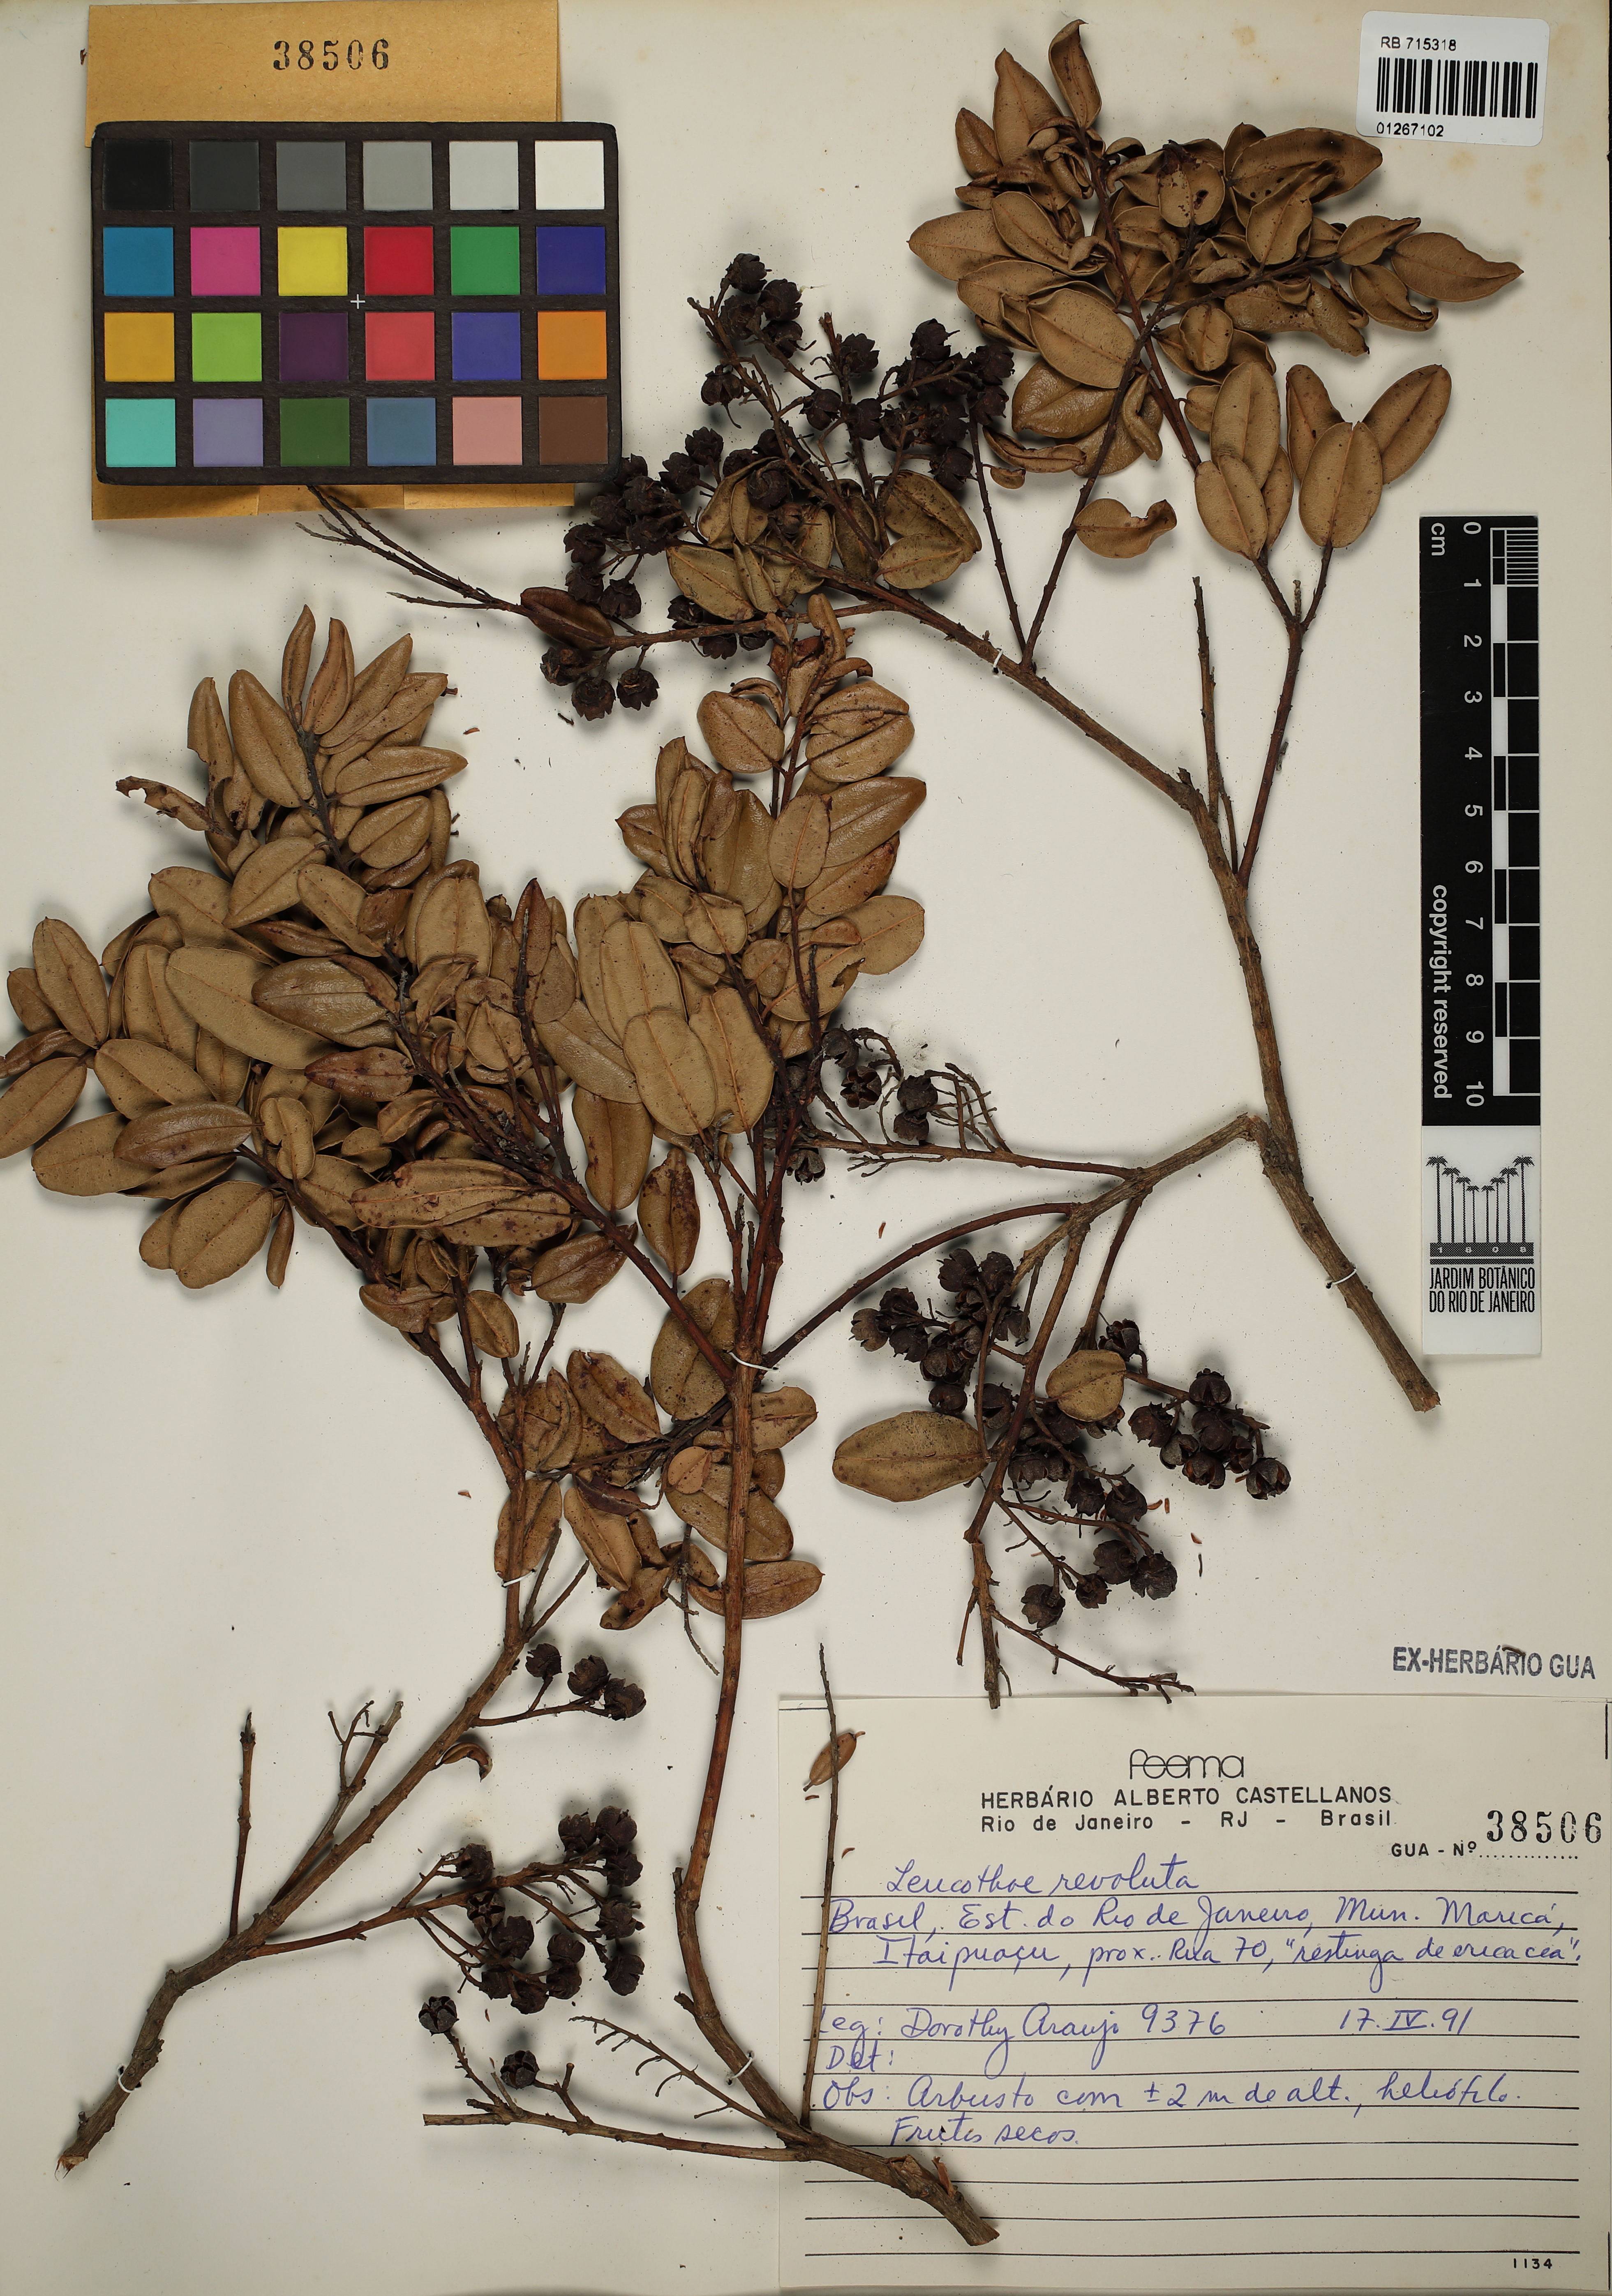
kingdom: Plantae
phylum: Tracheophyta
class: Magnoliopsida
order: Ericales
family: Ericaceae
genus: Agarista
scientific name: Agarista revoluta
